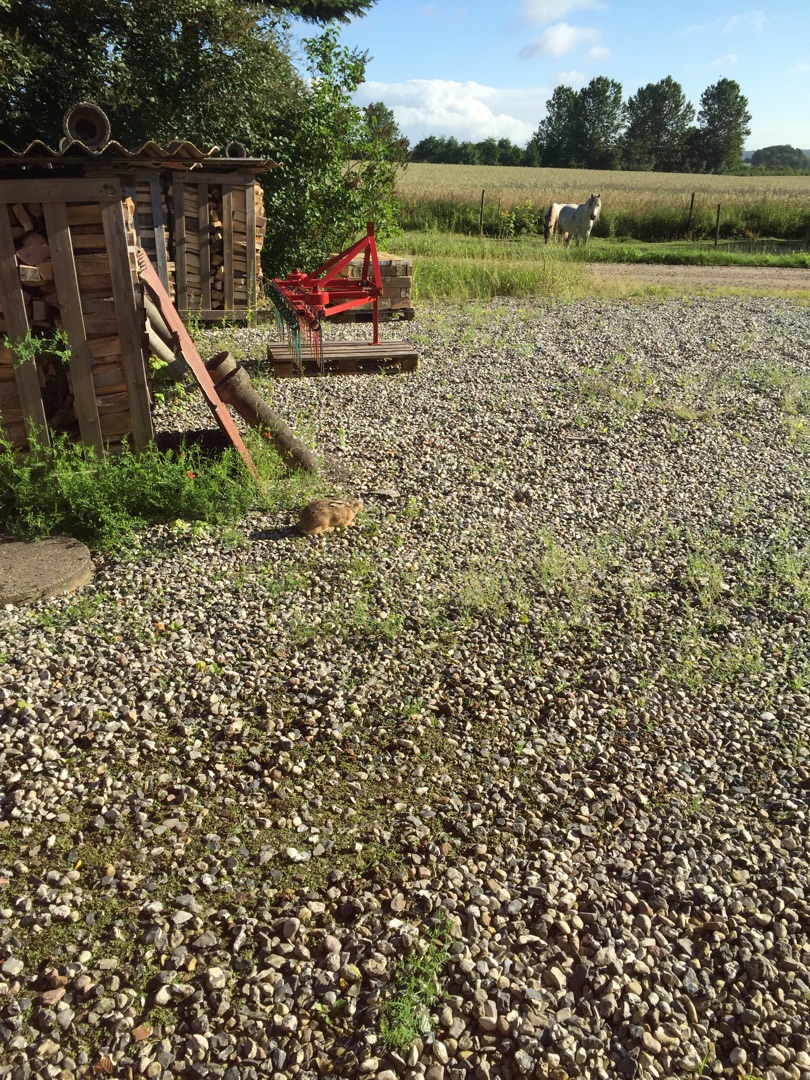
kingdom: Animalia
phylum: Chordata
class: Mammalia
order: Lagomorpha
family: Leporidae
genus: Lepus
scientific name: Lepus europaeus
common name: Hare
